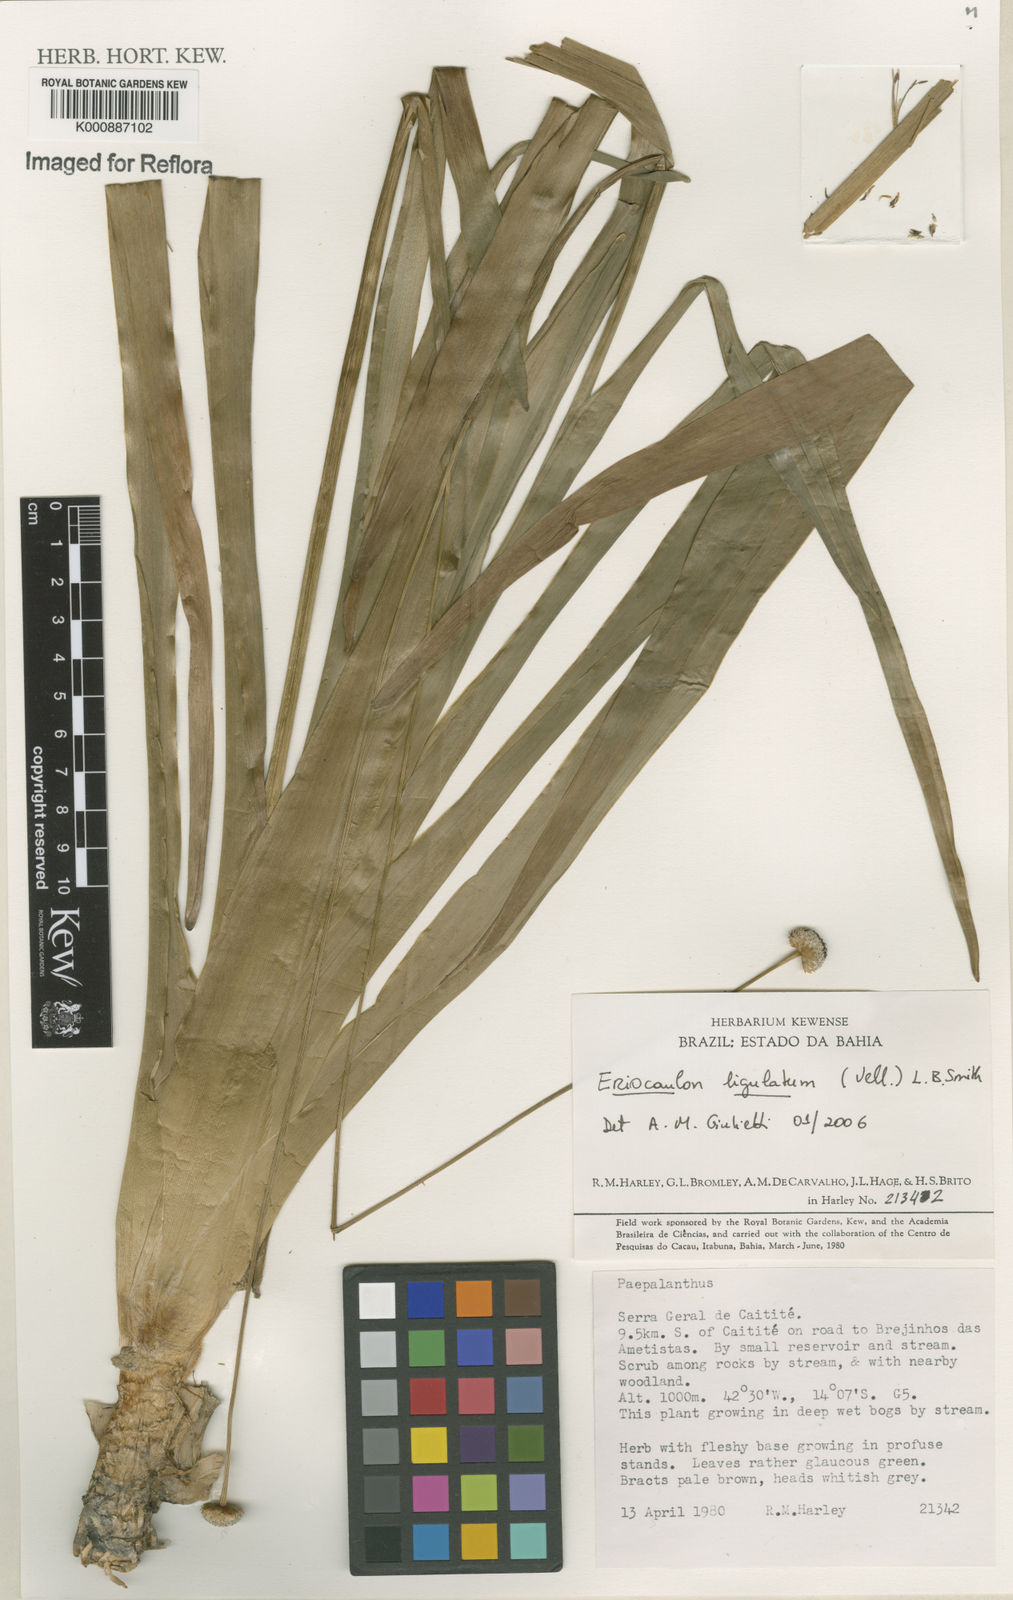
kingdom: Plantae
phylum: Tracheophyta
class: Liliopsida
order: Poales
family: Eriocaulaceae
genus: Eriocaulon
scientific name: Eriocaulon
